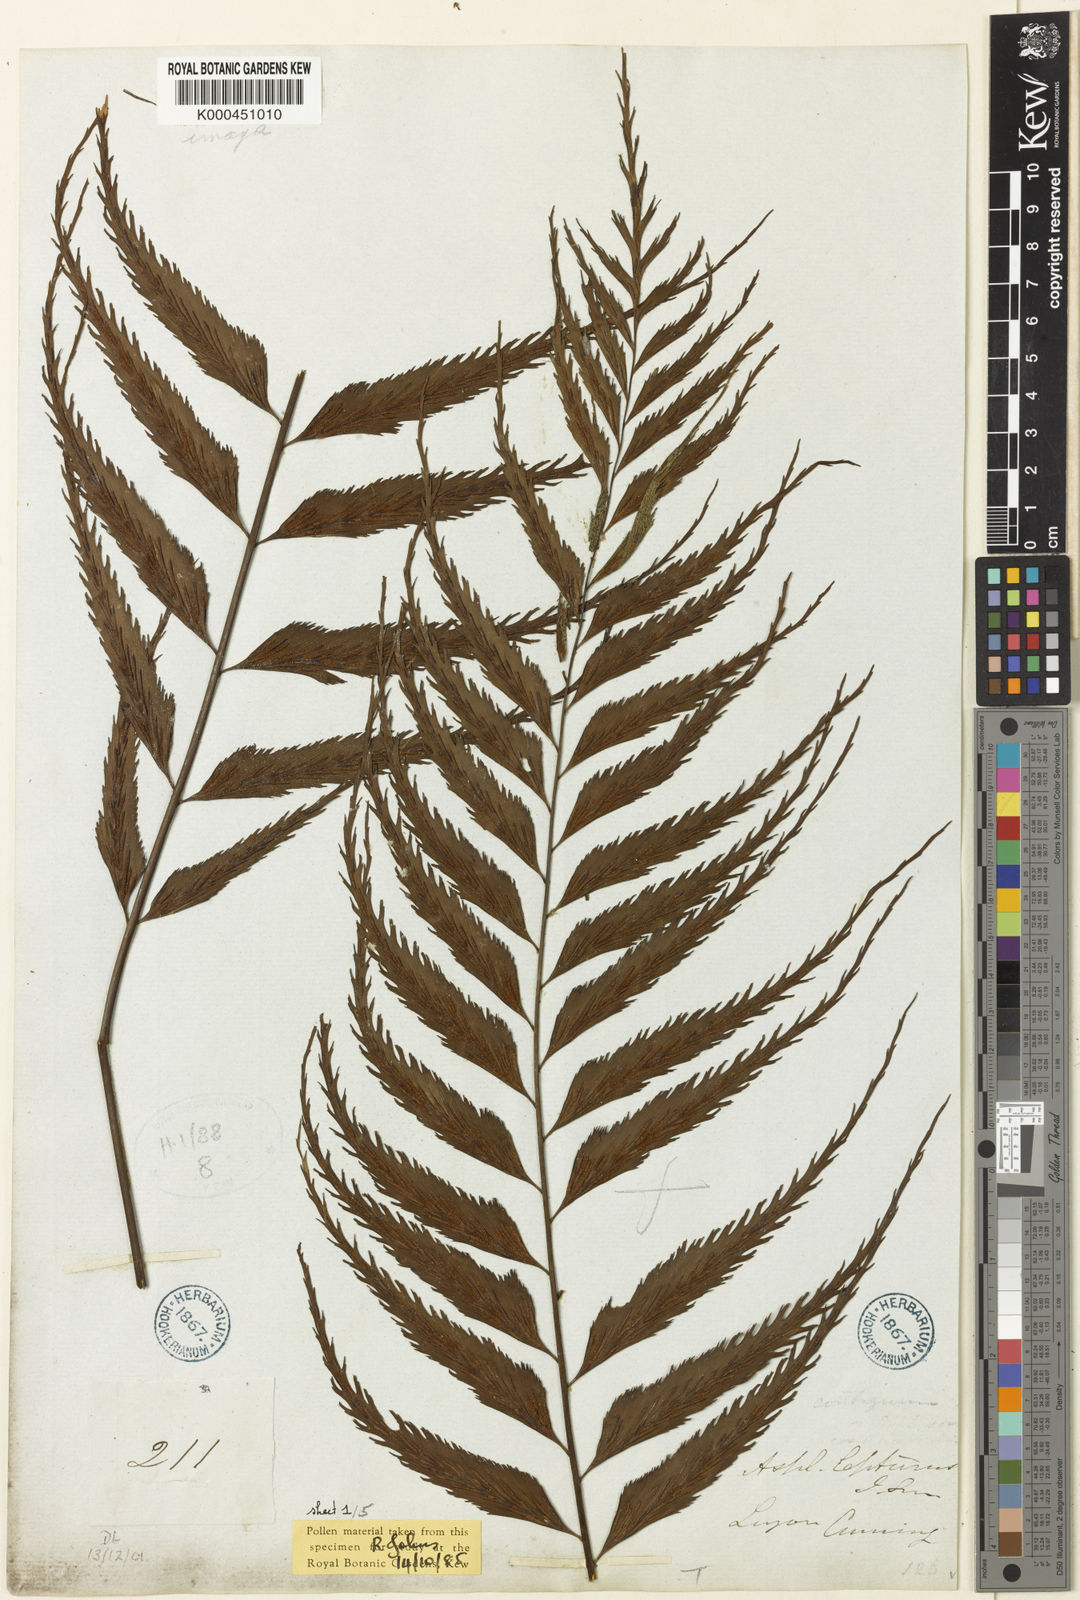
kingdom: Plantae
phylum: Tracheophyta
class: Polypodiopsida
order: Polypodiales
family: Aspleniaceae
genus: Asplenium
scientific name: Asplenium lepturus
